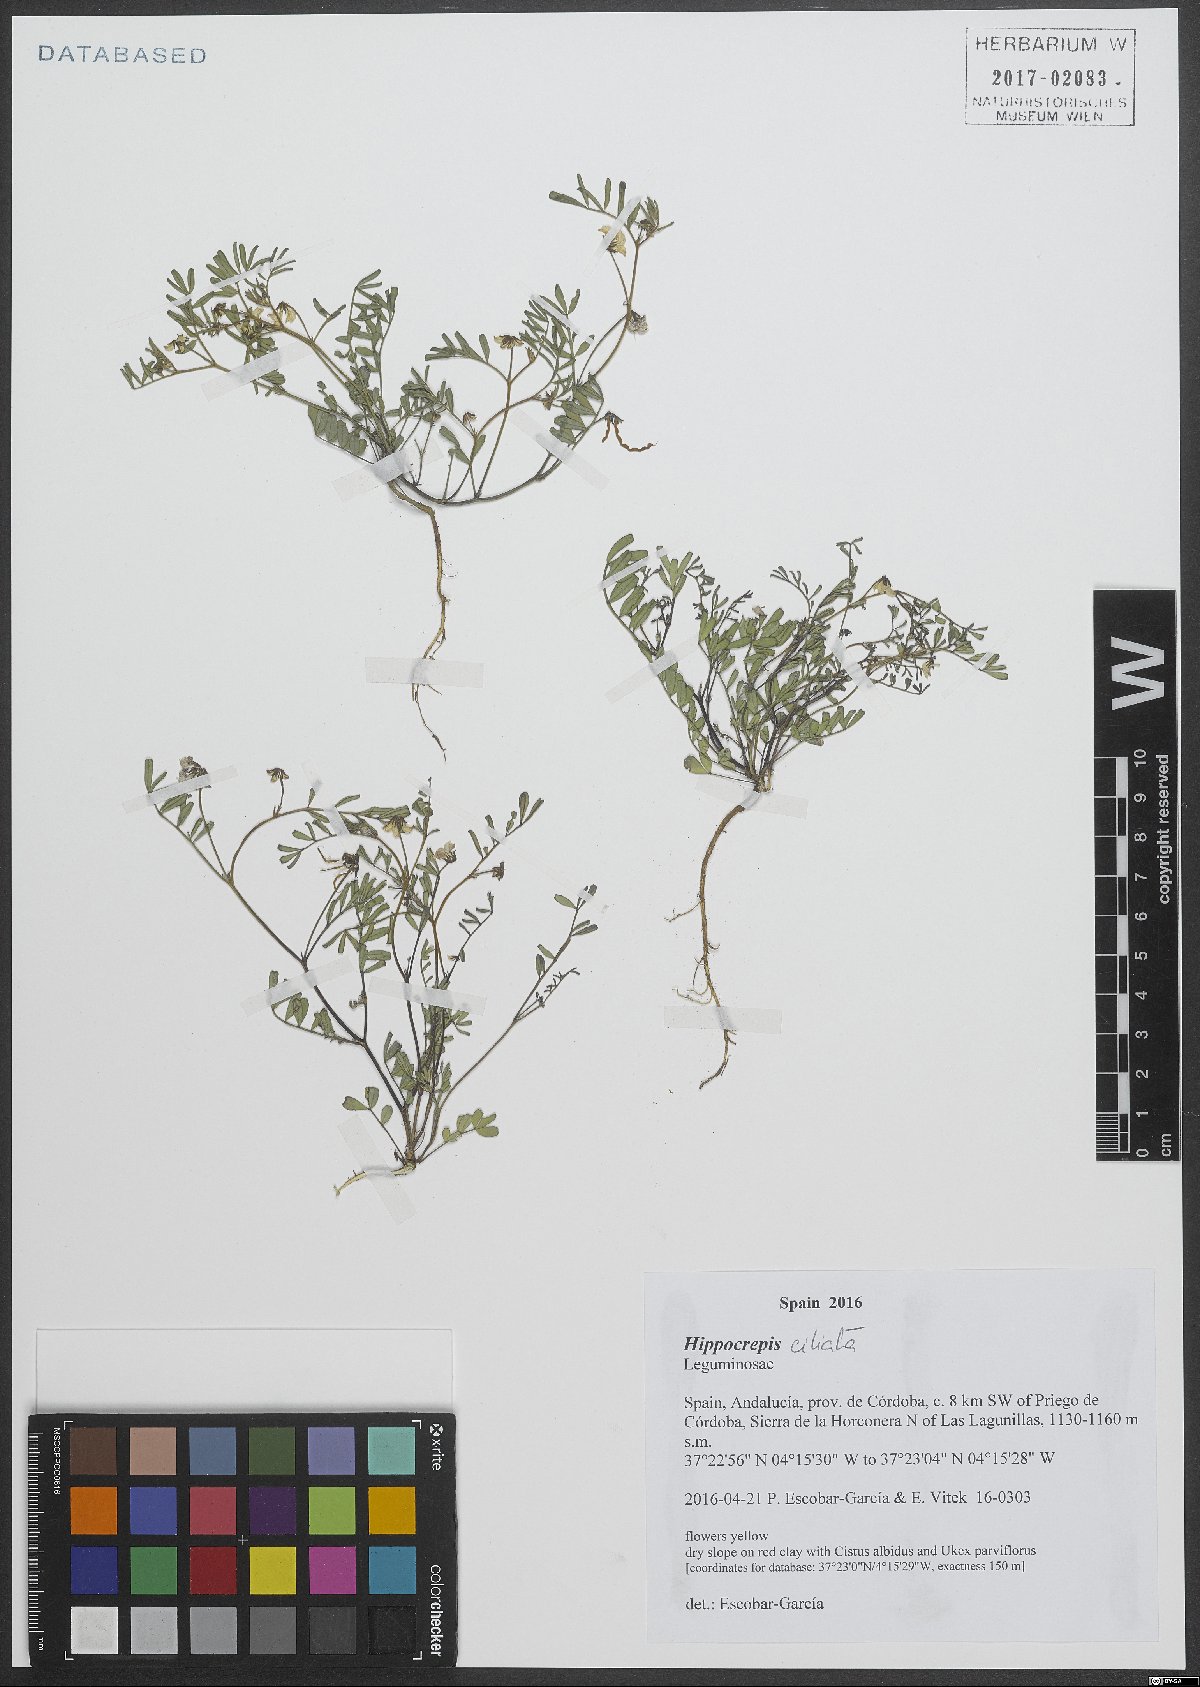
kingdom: Plantae
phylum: Tracheophyta
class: Magnoliopsida
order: Fabales
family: Fabaceae
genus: Hippocrepis
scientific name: Hippocrepis ciliata
